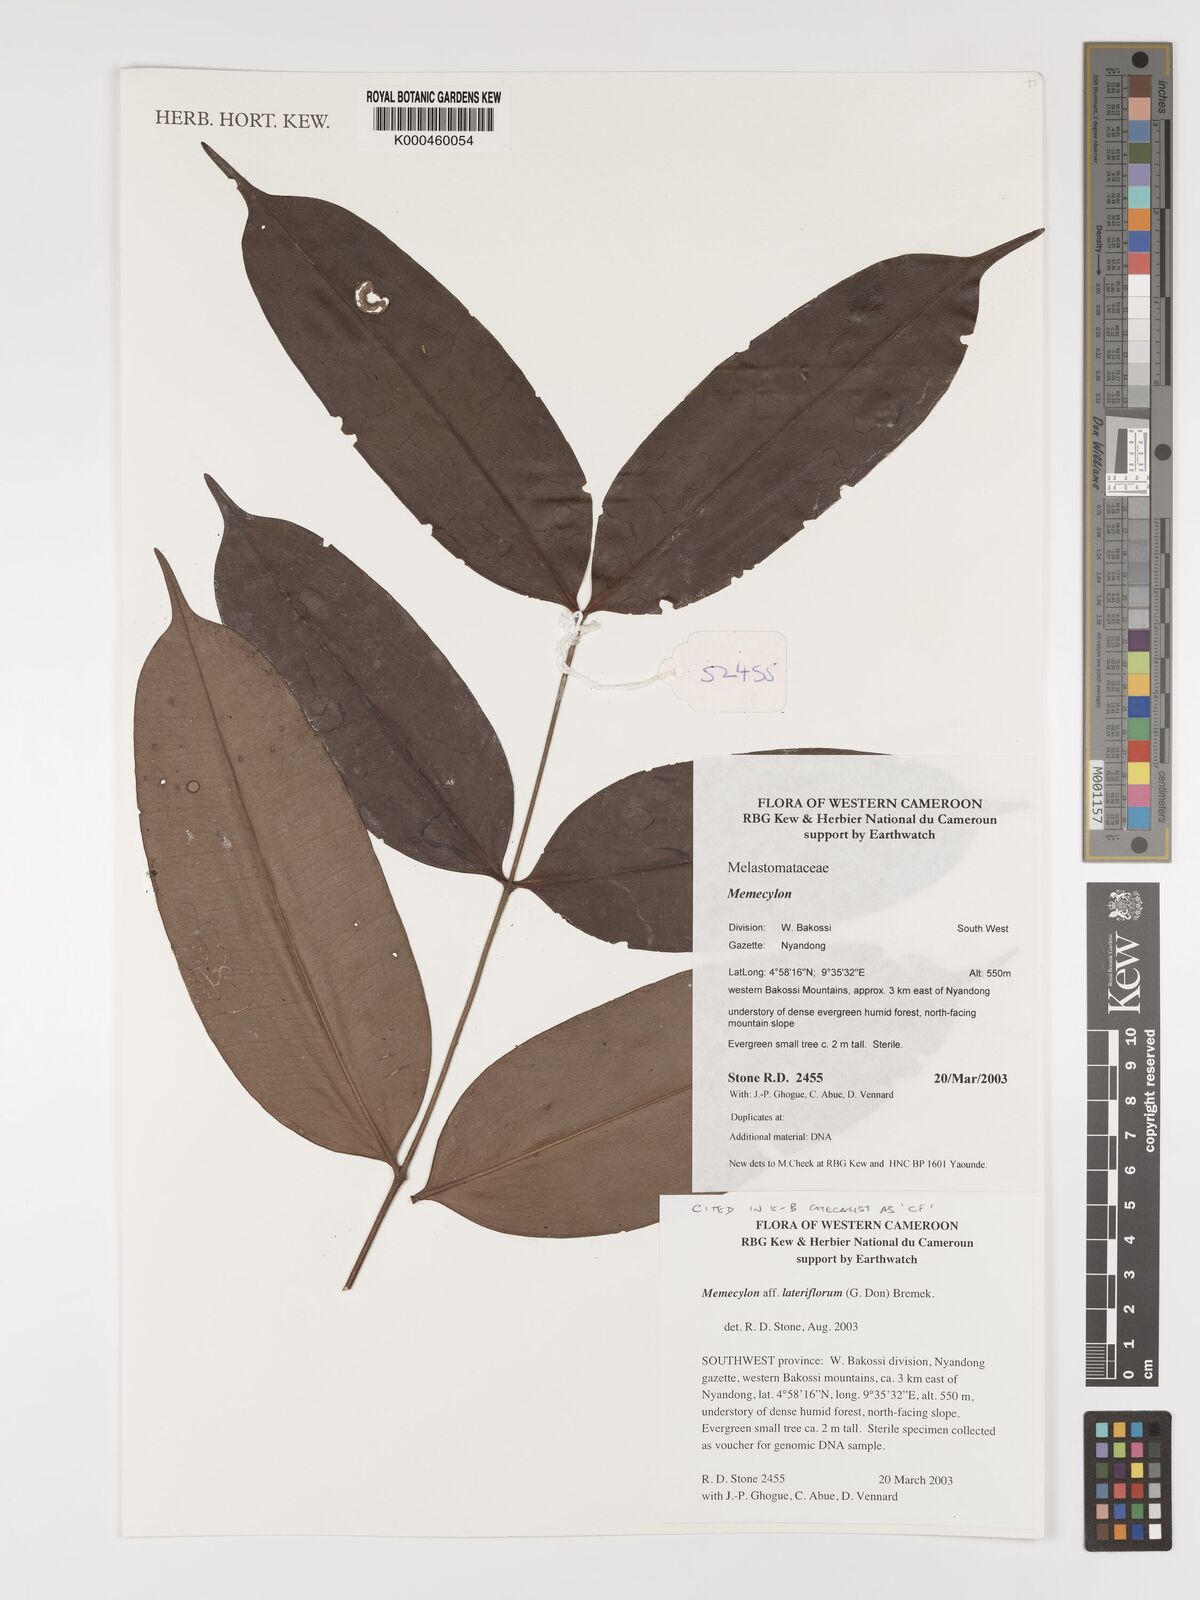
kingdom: Plantae
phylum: Tracheophyta
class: Magnoliopsida
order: Myrtales
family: Melastomataceae
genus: Memecylon
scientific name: Memecylon lateriflorum
